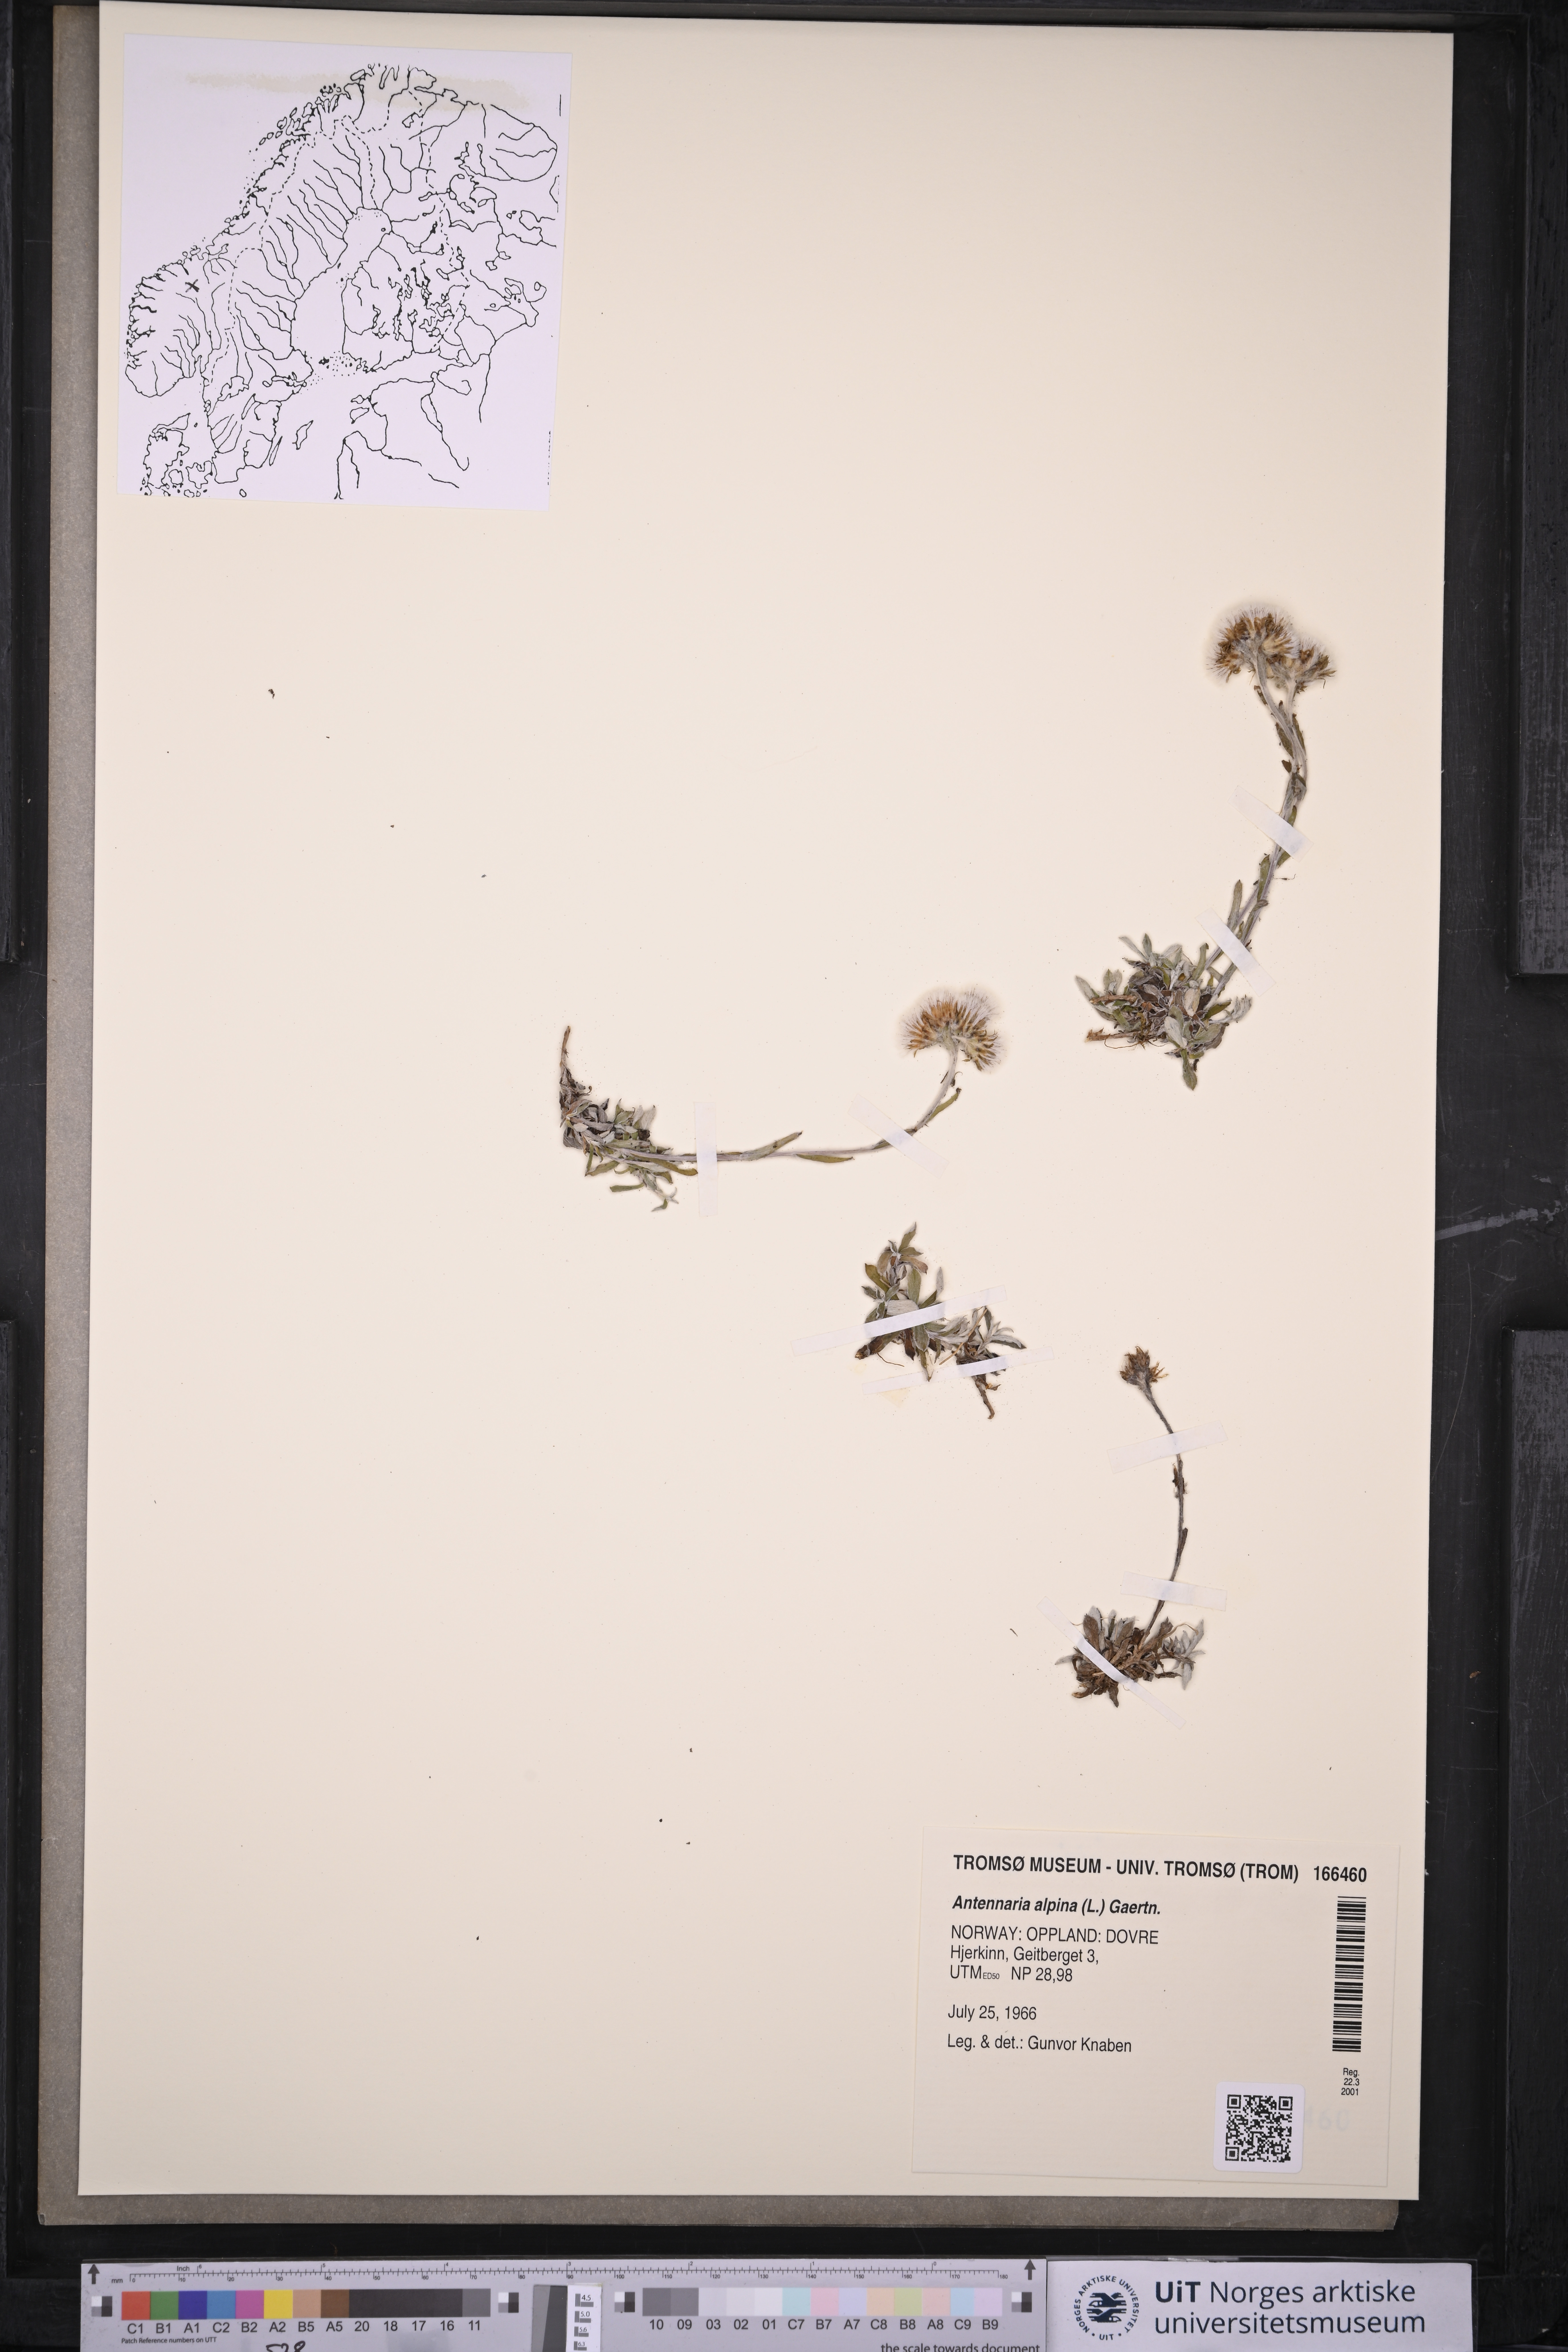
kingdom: Plantae
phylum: Tracheophyta
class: Magnoliopsida
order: Asterales
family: Asteraceae
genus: Antennaria
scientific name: Antennaria alpina
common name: Alpine pussytoes
